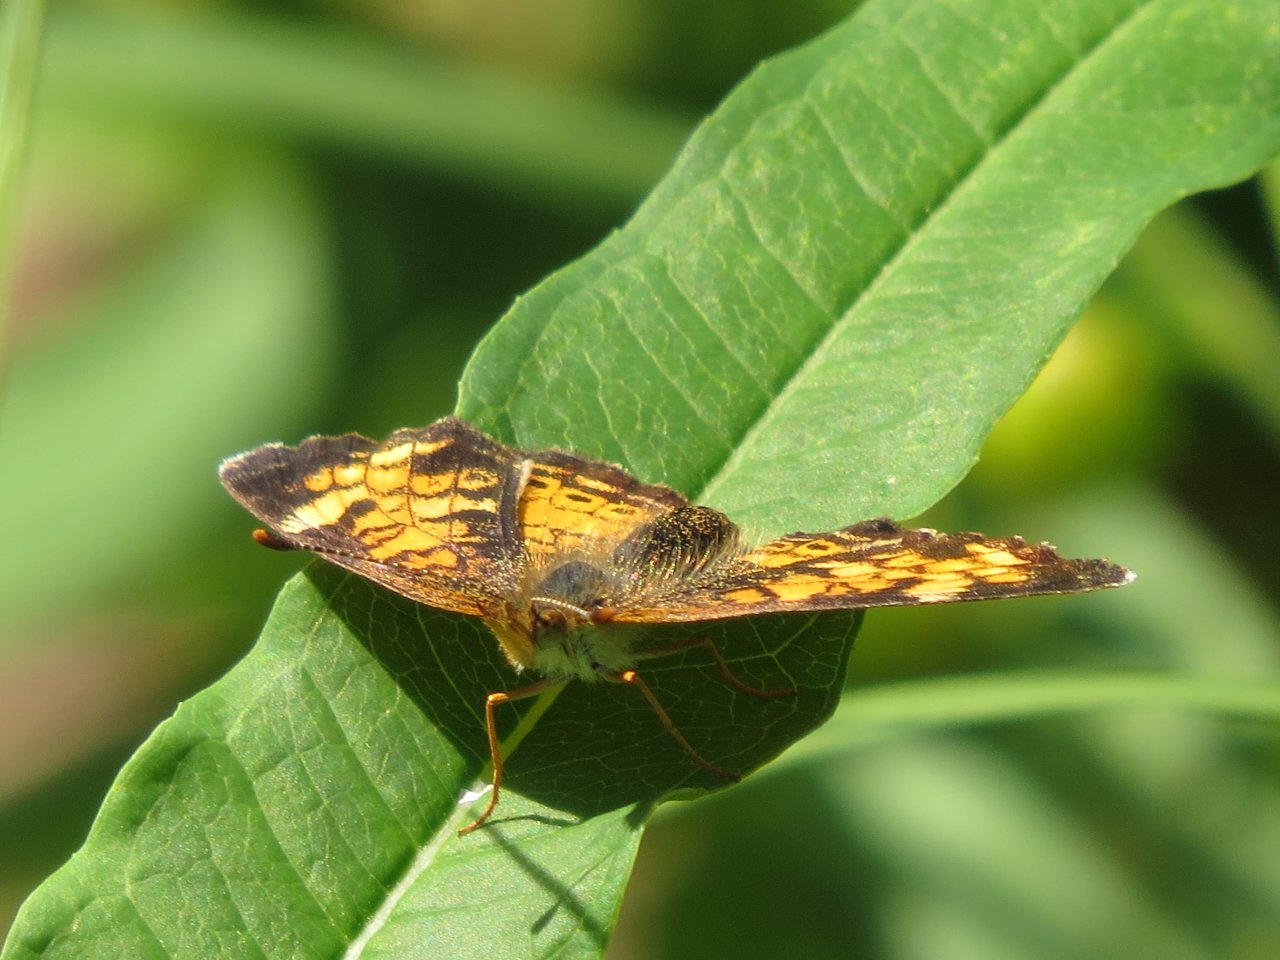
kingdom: Animalia
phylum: Arthropoda
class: Insecta
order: Lepidoptera
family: Nymphalidae
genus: Phyciodes
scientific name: Phyciodes tharos
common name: Northern Crescent
